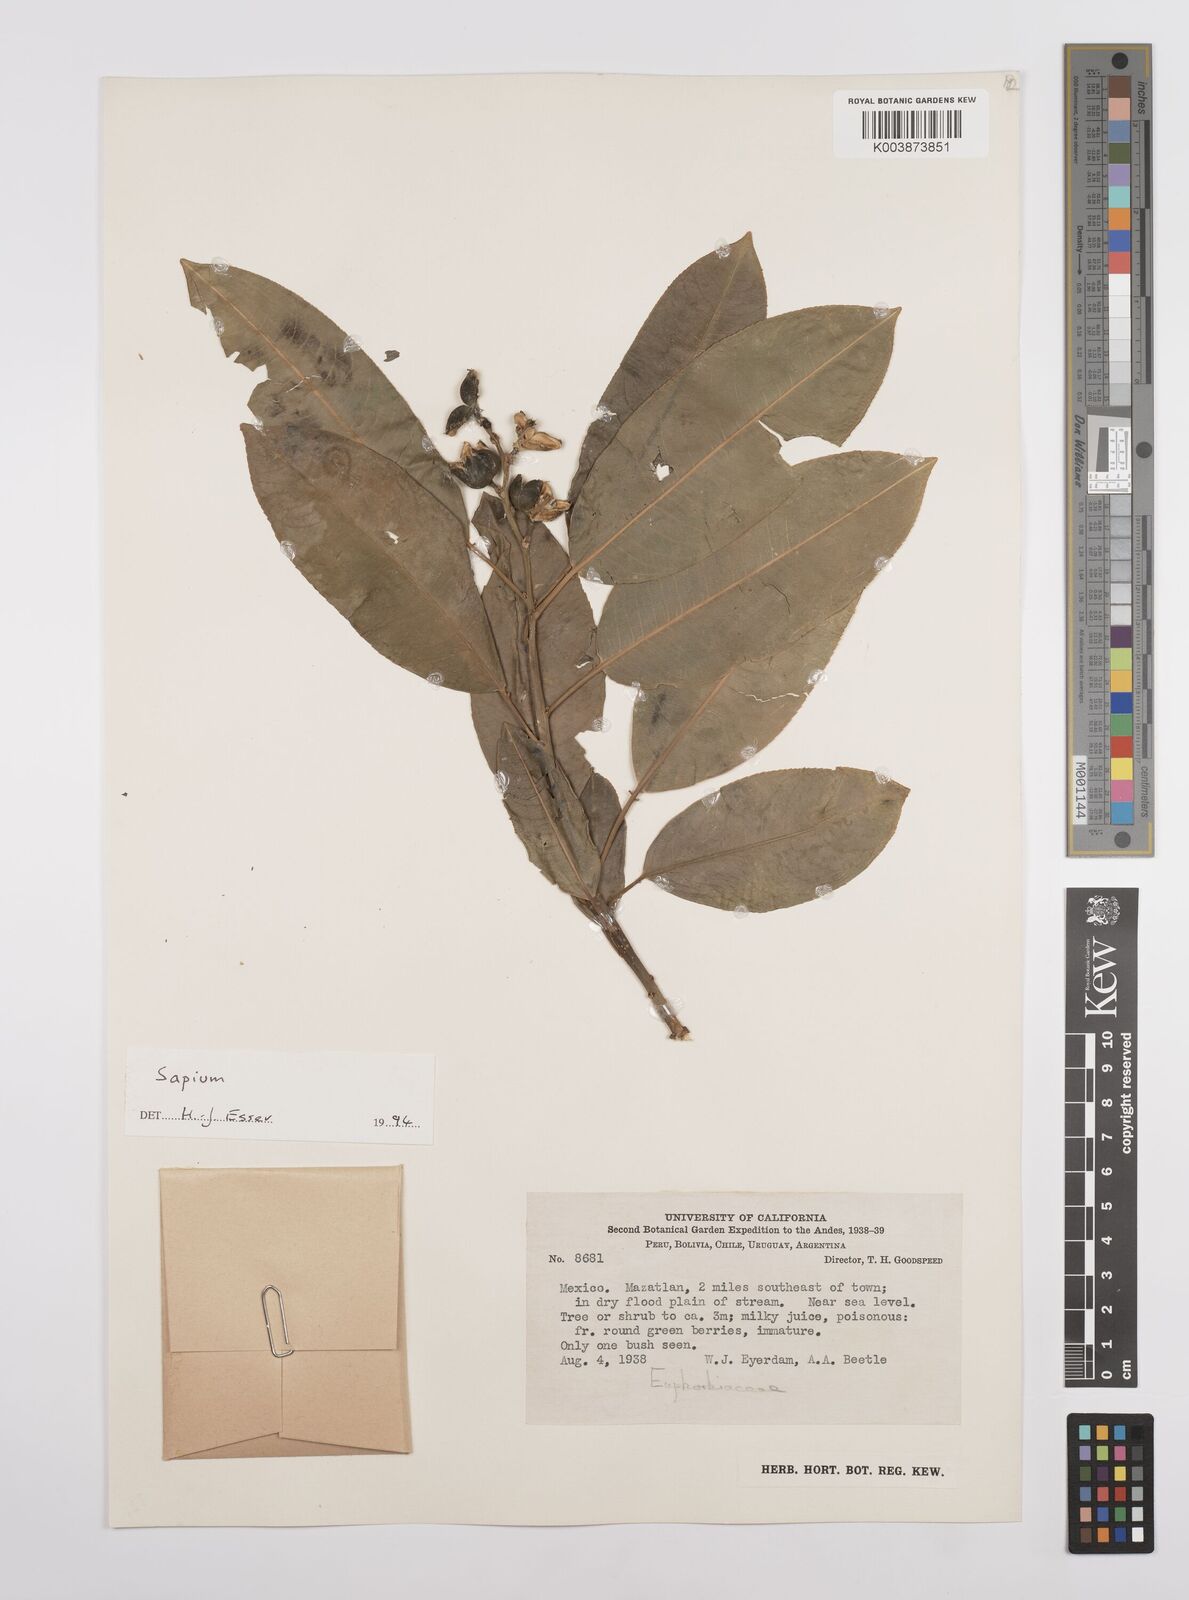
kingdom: Plantae
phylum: Tracheophyta
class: Magnoliopsida
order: Malpighiales
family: Euphorbiaceae
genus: Sapium
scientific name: Sapium
